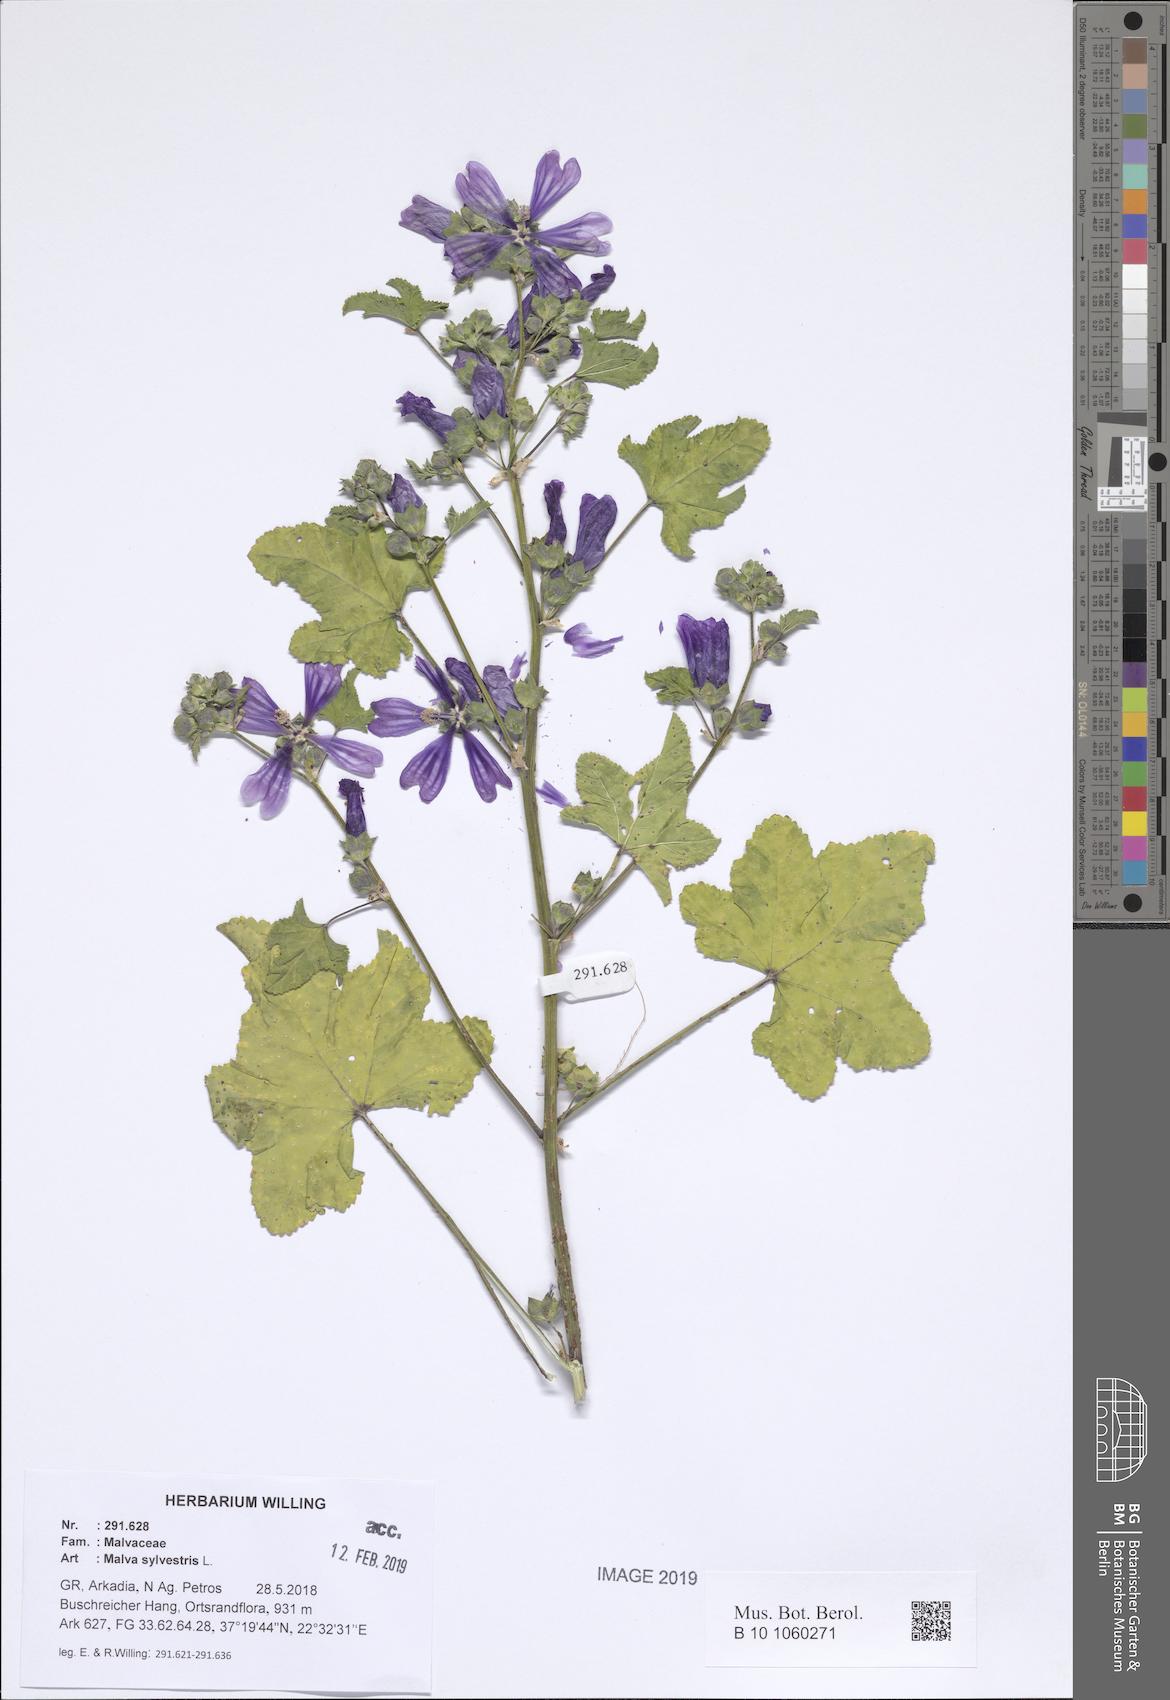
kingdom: Plantae
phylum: Tracheophyta
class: Magnoliopsida
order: Malvales
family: Malvaceae
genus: Malva
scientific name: Malva sylvestris
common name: Common mallow
